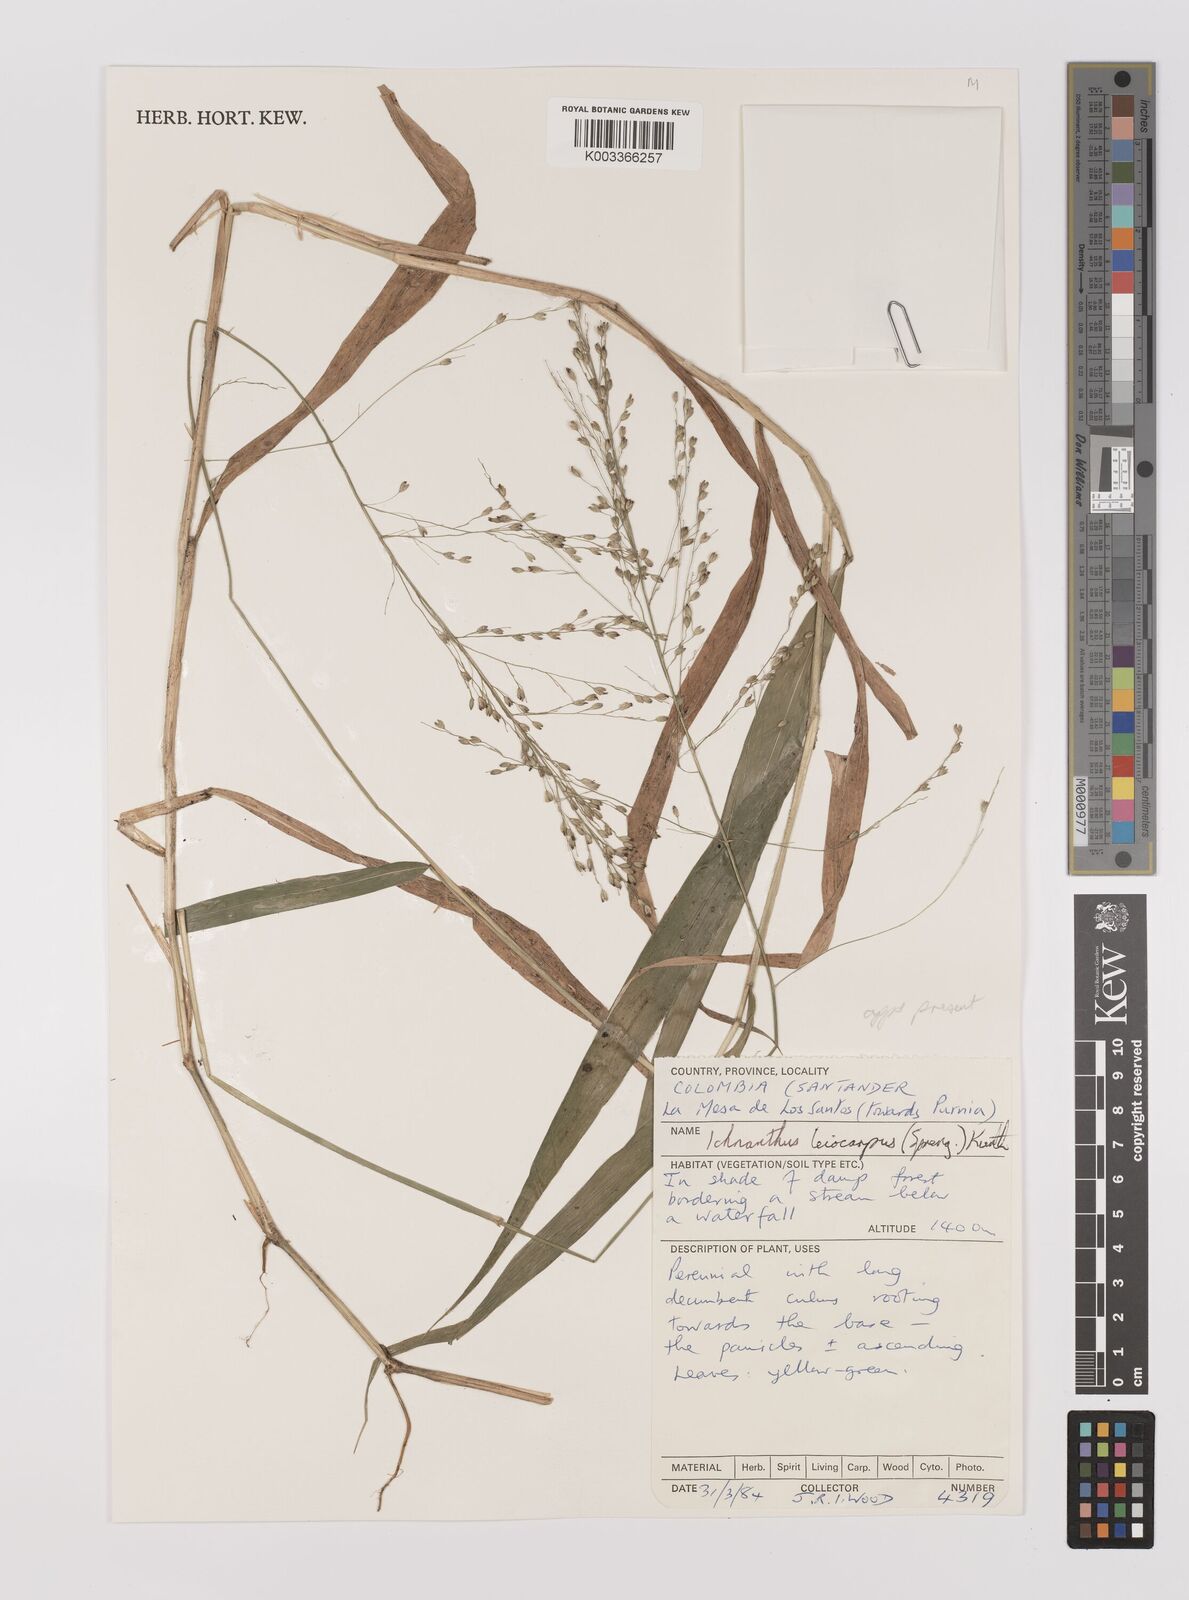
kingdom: Plantae
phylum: Tracheophyta
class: Liliopsida
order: Poales
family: Poaceae
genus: Ichnanthus
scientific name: Ichnanthus leiocarpus
